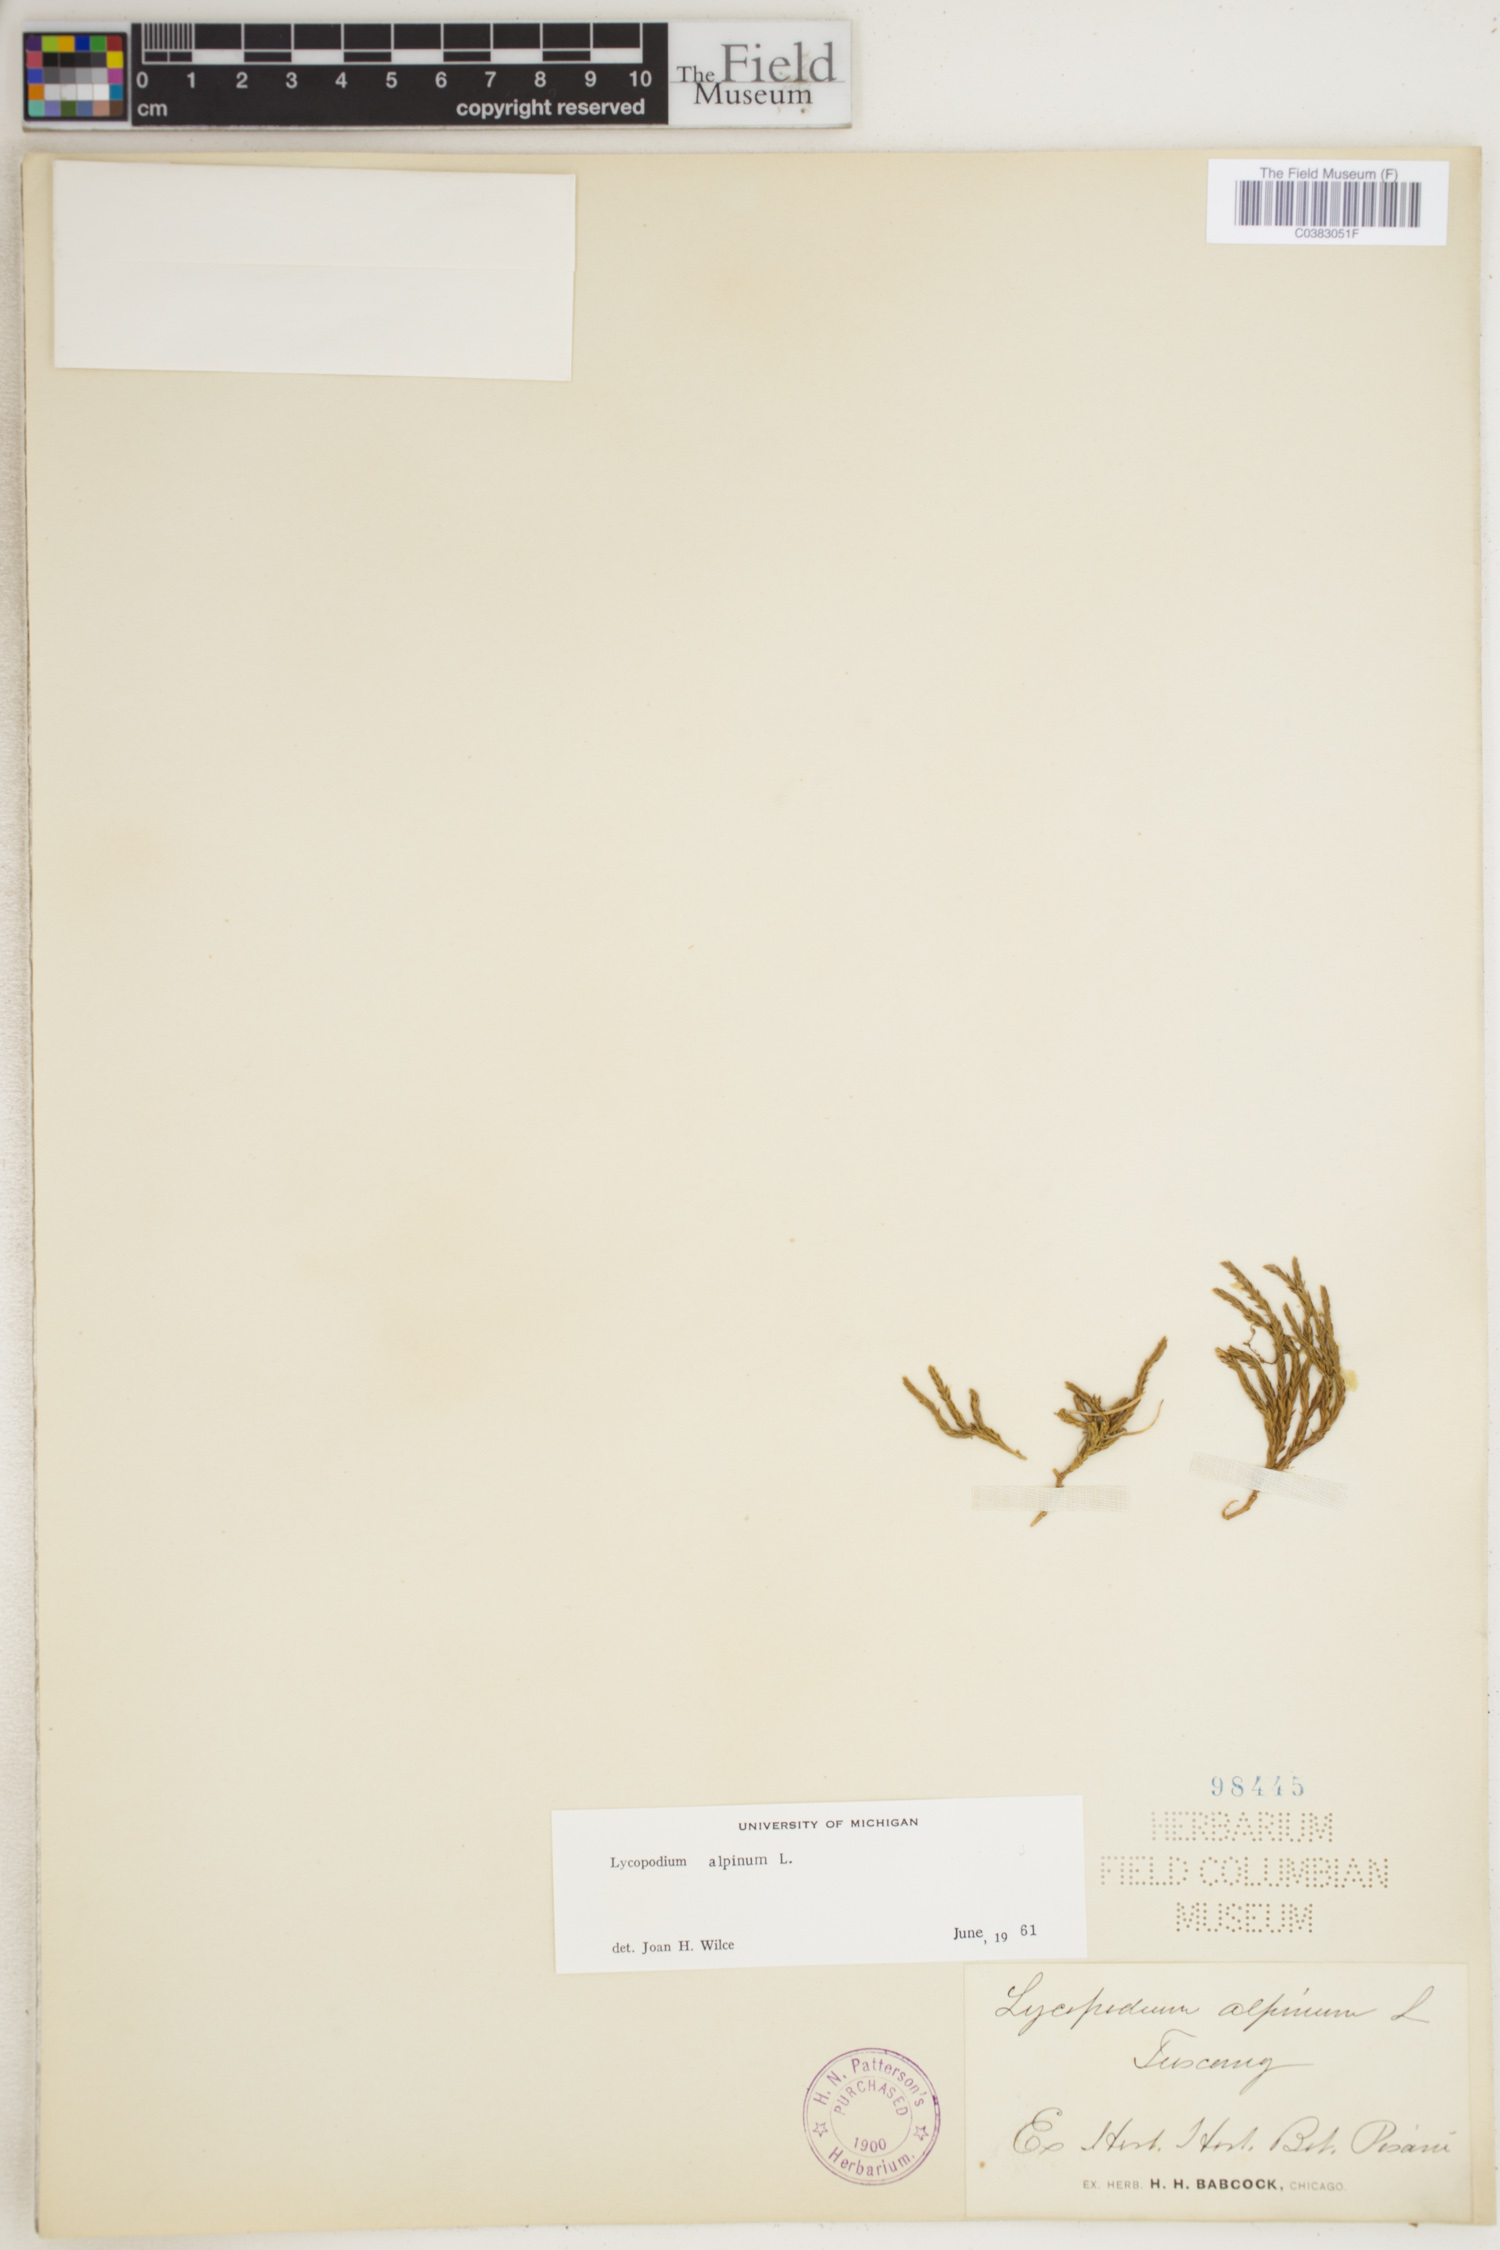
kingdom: Plantae
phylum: Tracheophyta
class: Lycopodiopsida
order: Lycopodiales
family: Lycopodiaceae
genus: Diphasiastrum
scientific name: Diphasiastrum alpinum
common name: Alpine clubmoss
